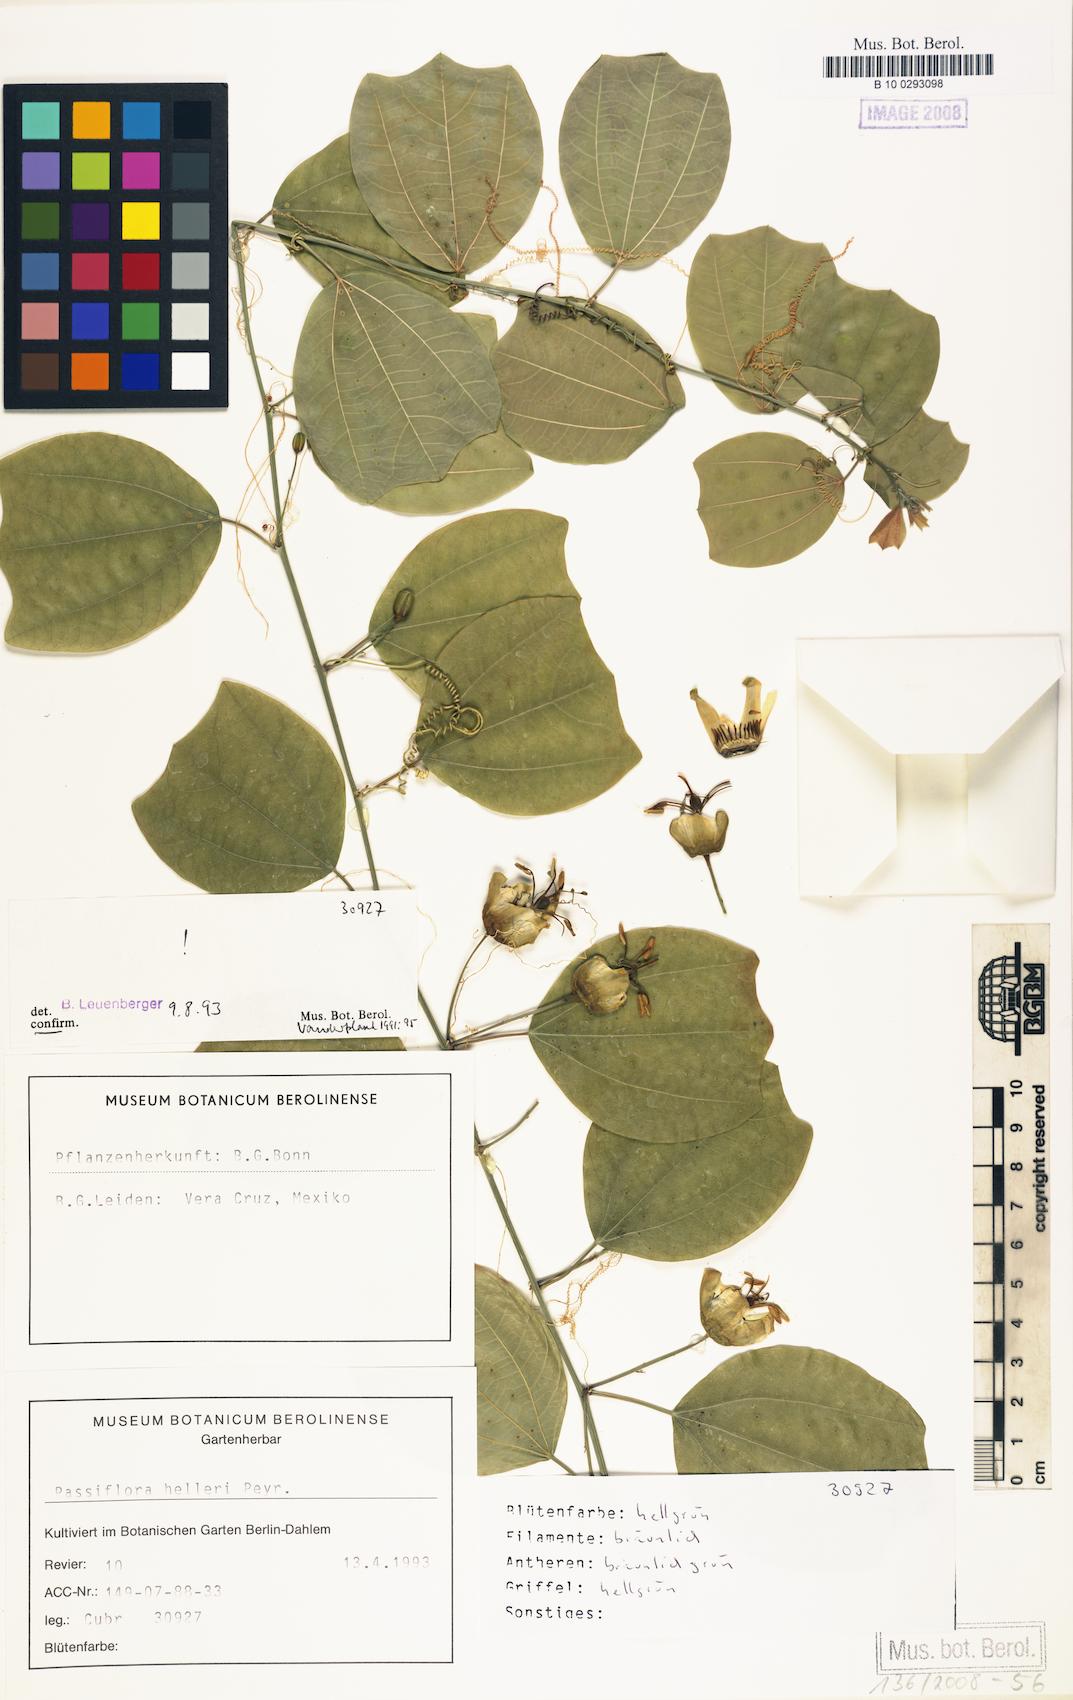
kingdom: Plantae
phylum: Tracheophyta
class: Magnoliopsida
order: Malpighiales
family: Passifloraceae
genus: Passiflora
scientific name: Passiflora helleri
